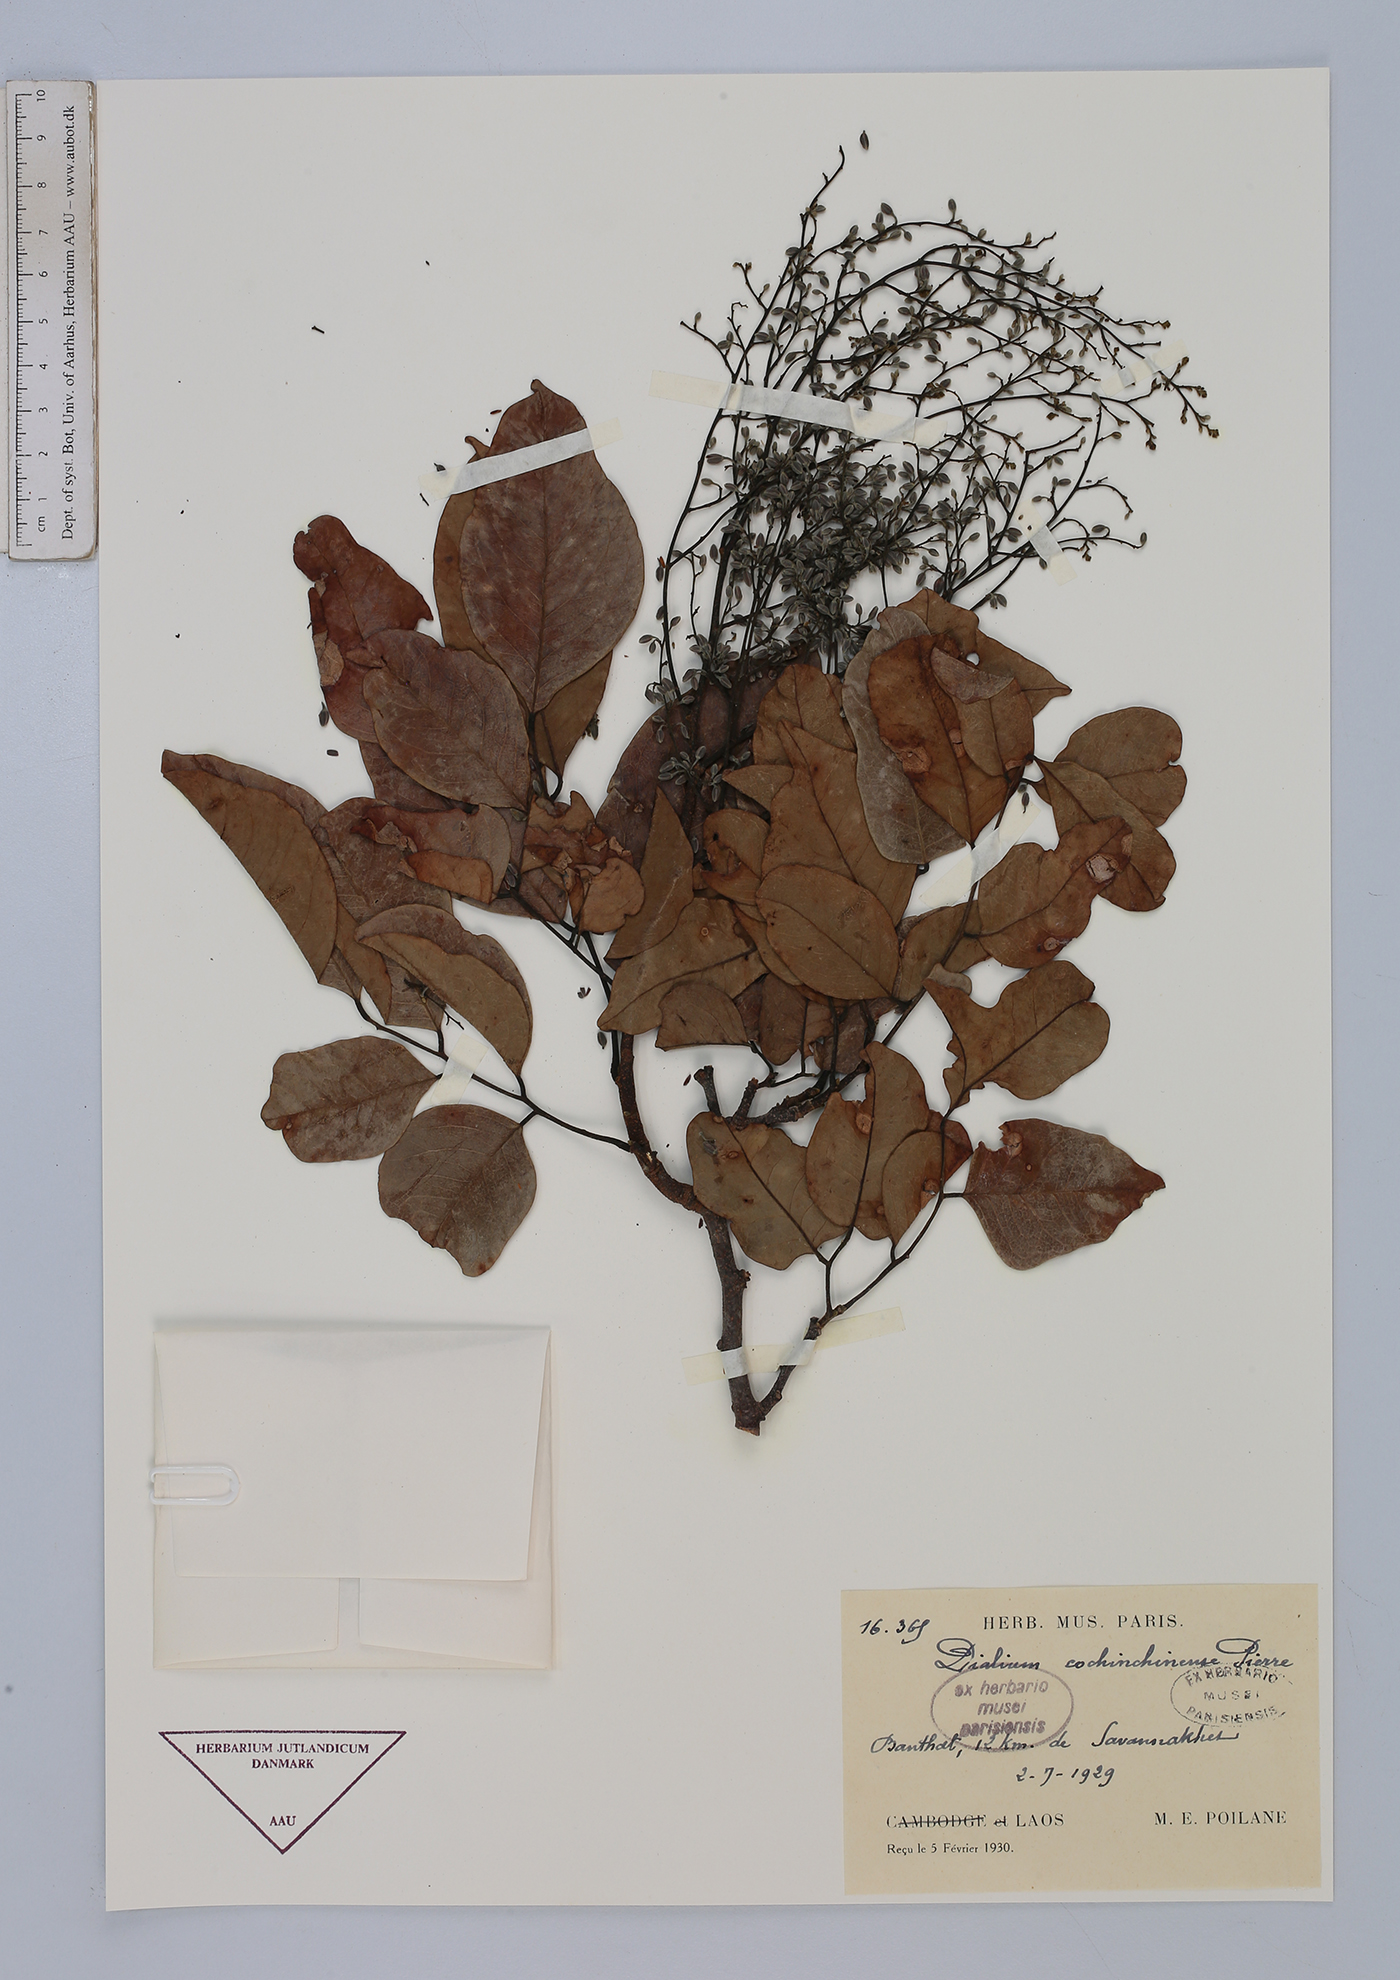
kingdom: Plantae
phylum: Tracheophyta
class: Magnoliopsida
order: Fabales
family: Fabaceae
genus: Dialium
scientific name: Dialium cochinchinense
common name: Velvet tamarind
